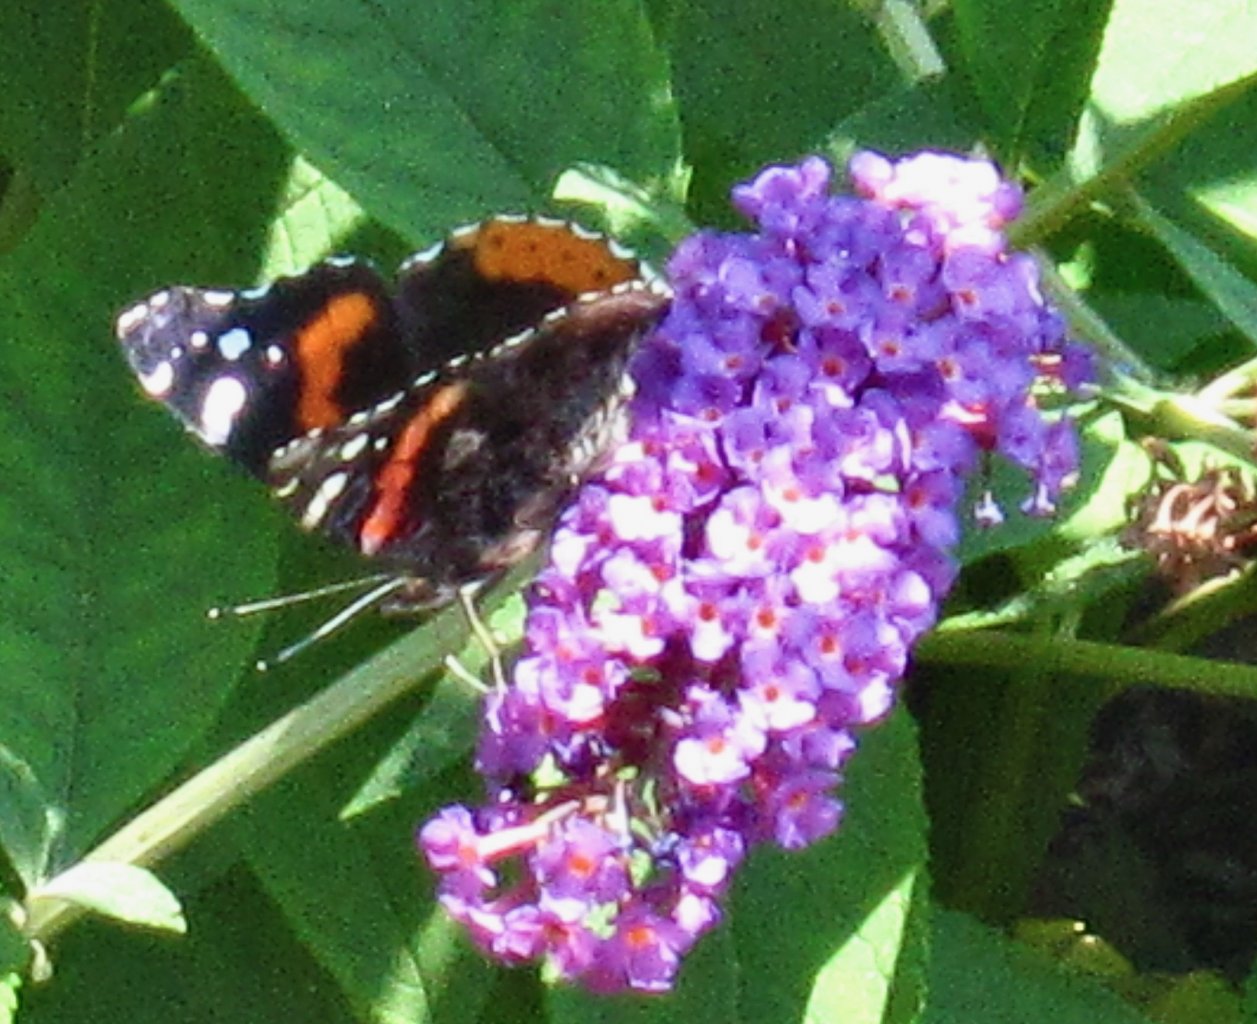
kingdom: Animalia
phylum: Arthropoda
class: Insecta
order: Lepidoptera
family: Nymphalidae
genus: Vanessa
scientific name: Vanessa atalanta
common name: Red Admiral
